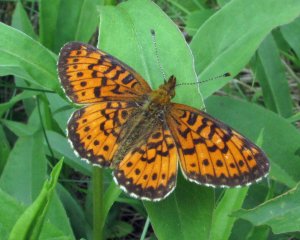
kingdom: Animalia
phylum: Arthropoda
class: Insecta
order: Lepidoptera
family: Nymphalidae
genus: Boloria
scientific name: Boloria selene
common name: Silver-bordered Fritillary
